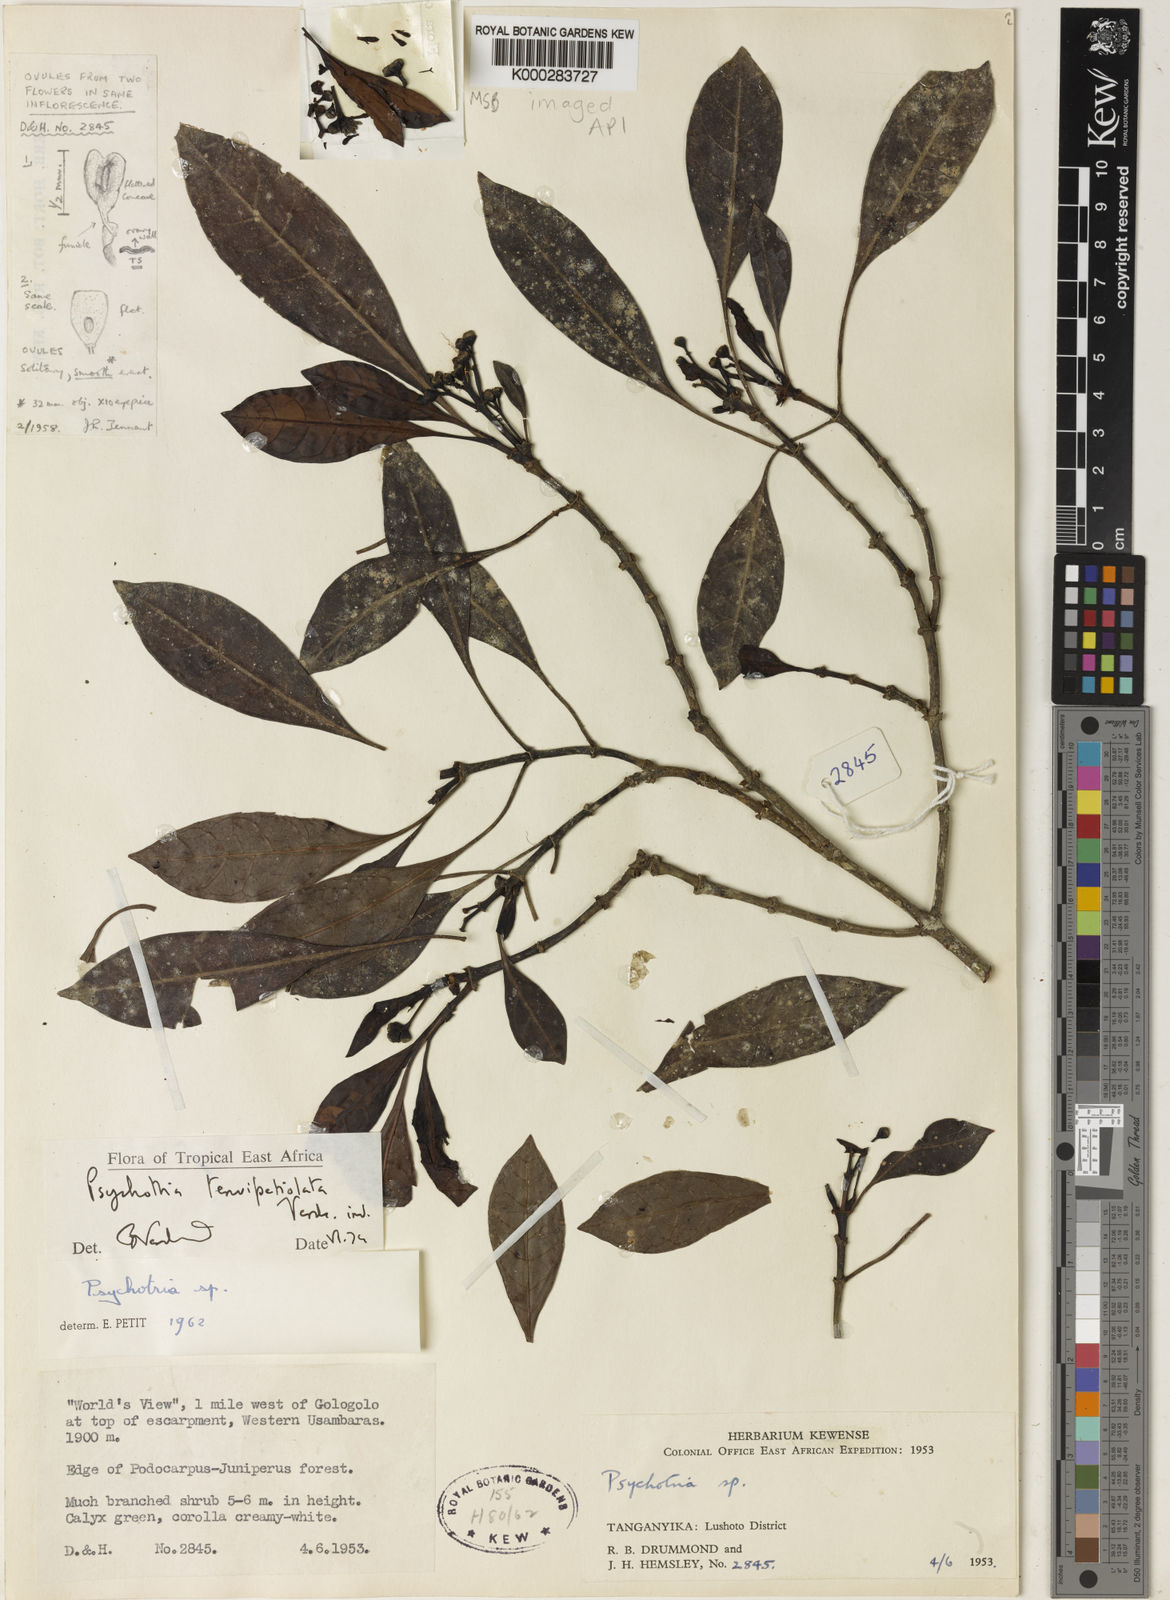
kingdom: Plantae
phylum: Tracheophyta
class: Magnoliopsida
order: Gentianales
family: Rubiaceae
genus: Psychotria
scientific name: Psychotria tenuipetiolata
